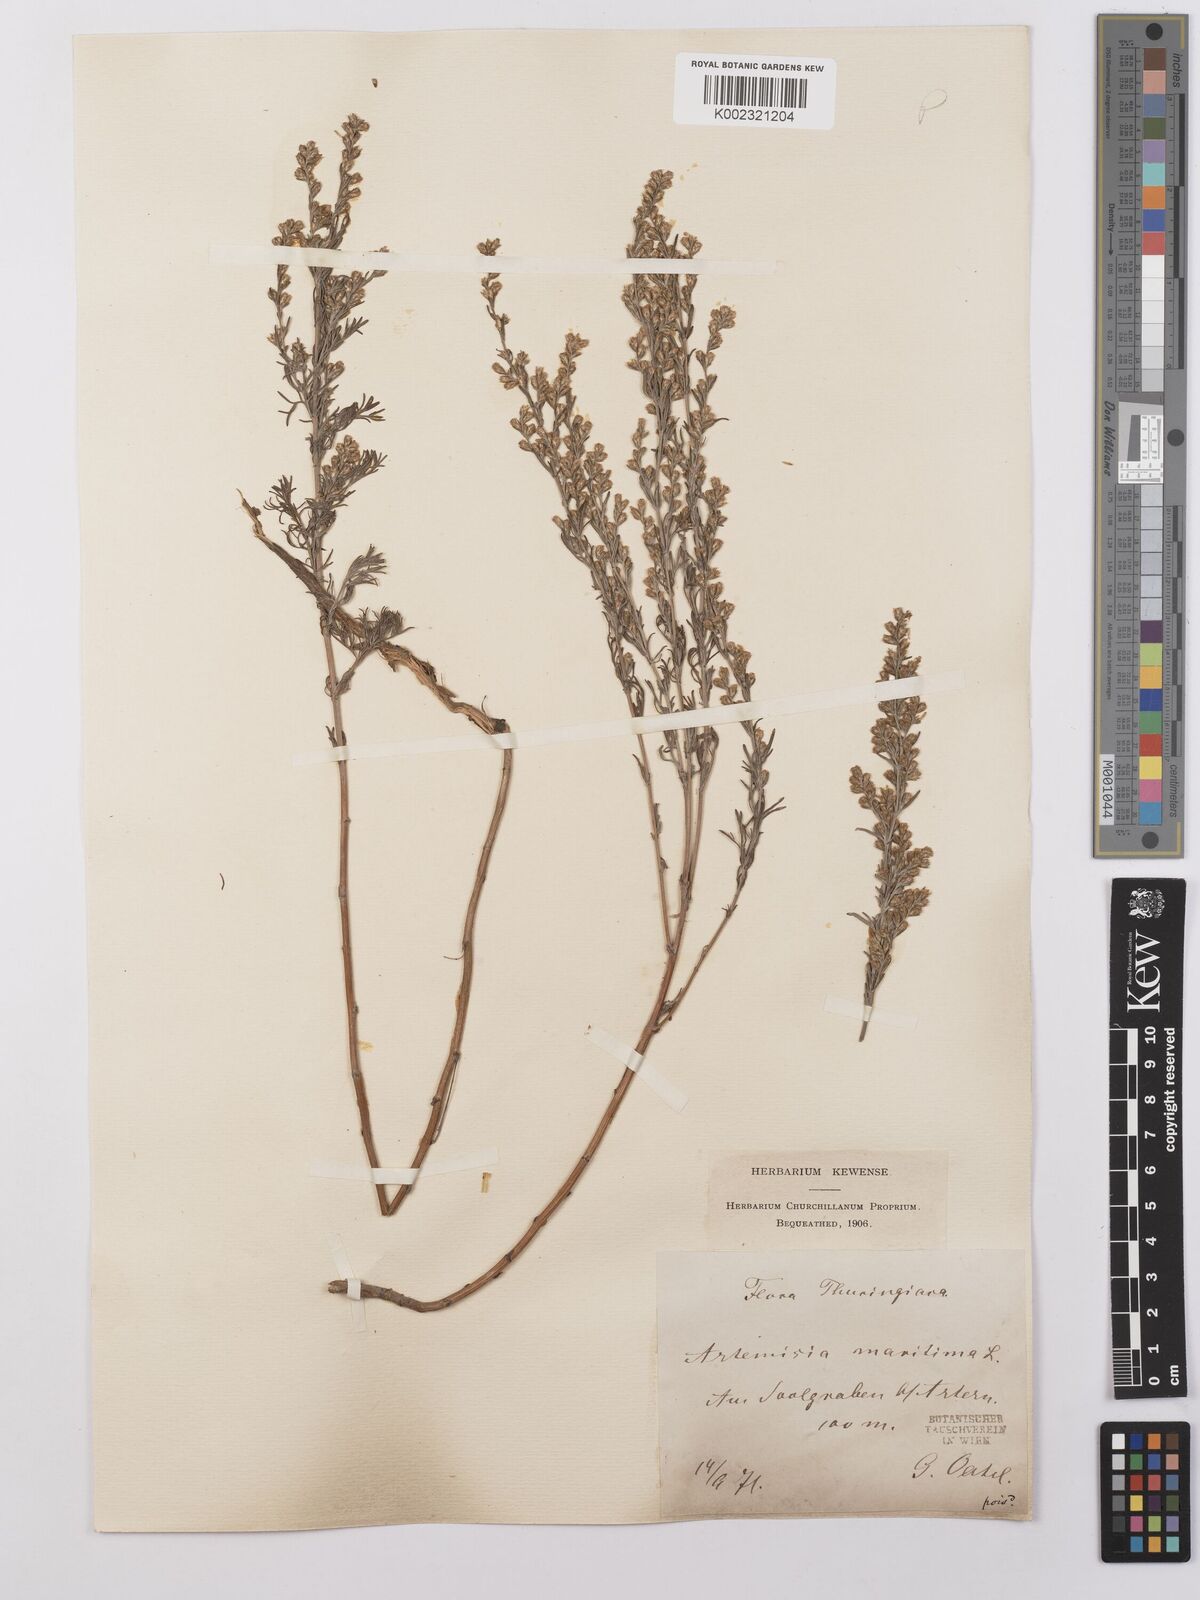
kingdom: Plantae
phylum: Tracheophyta
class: Magnoliopsida
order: Asterales
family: Asteraceae
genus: Artemisia
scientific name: Artemisia maritima
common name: Wormseed
